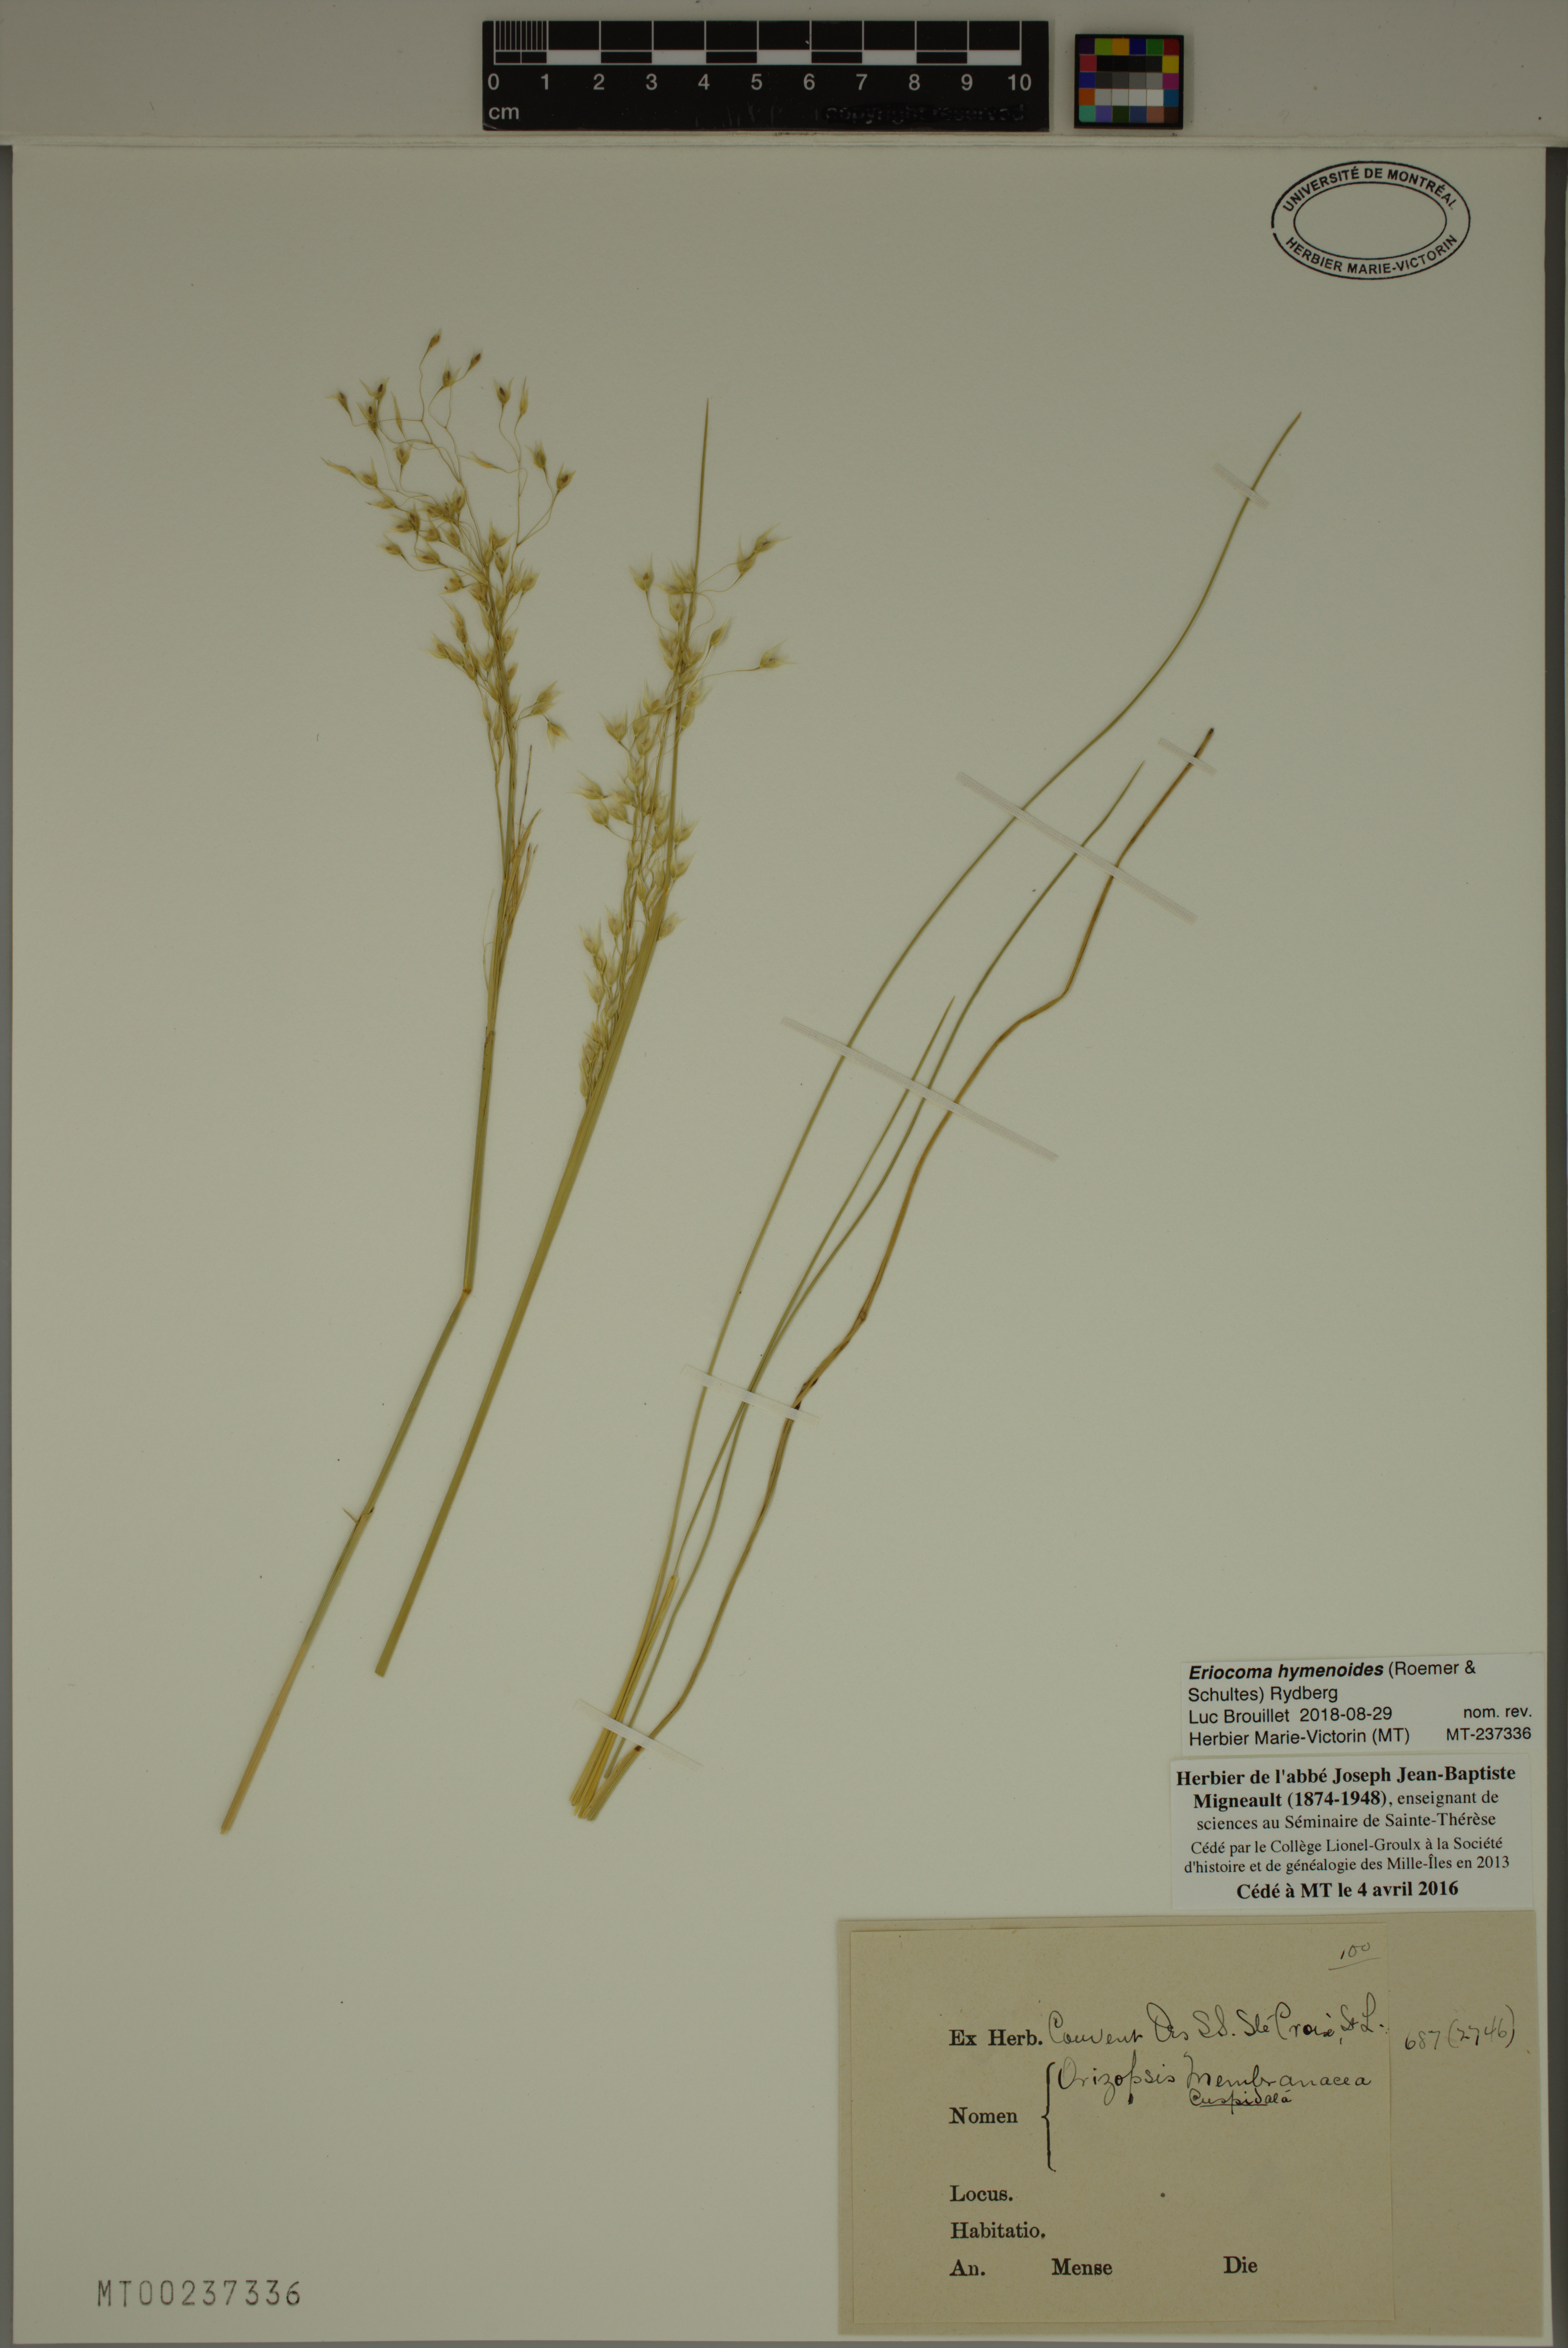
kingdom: Plantae
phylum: Tracheophyta
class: Liliopsida
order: Poales
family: Poaceae
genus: Eriocoma
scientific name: Eriocoma hymenoides
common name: Indian mountain ricegrass
